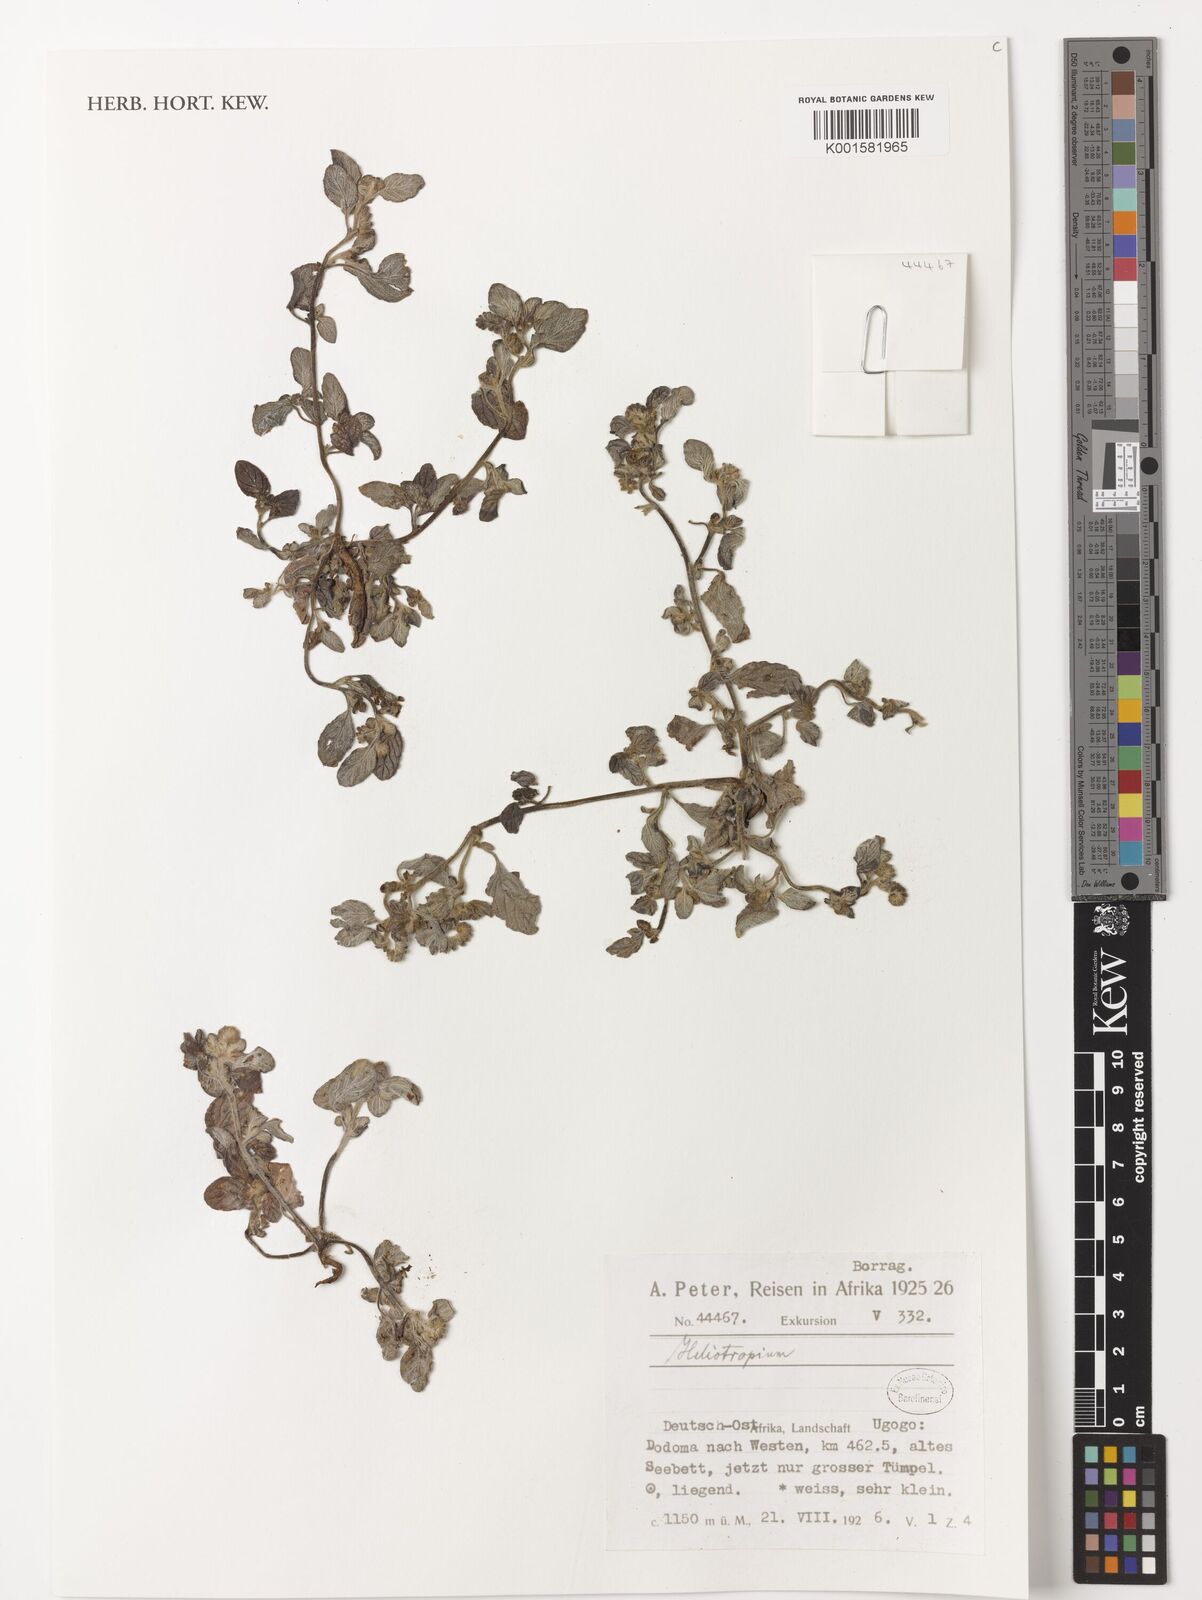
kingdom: Plantae
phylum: Tracheophyta
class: Magnoliopsida
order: Boraginales
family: Heliotropiaceae
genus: Heliotropium
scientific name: Heliotropium
